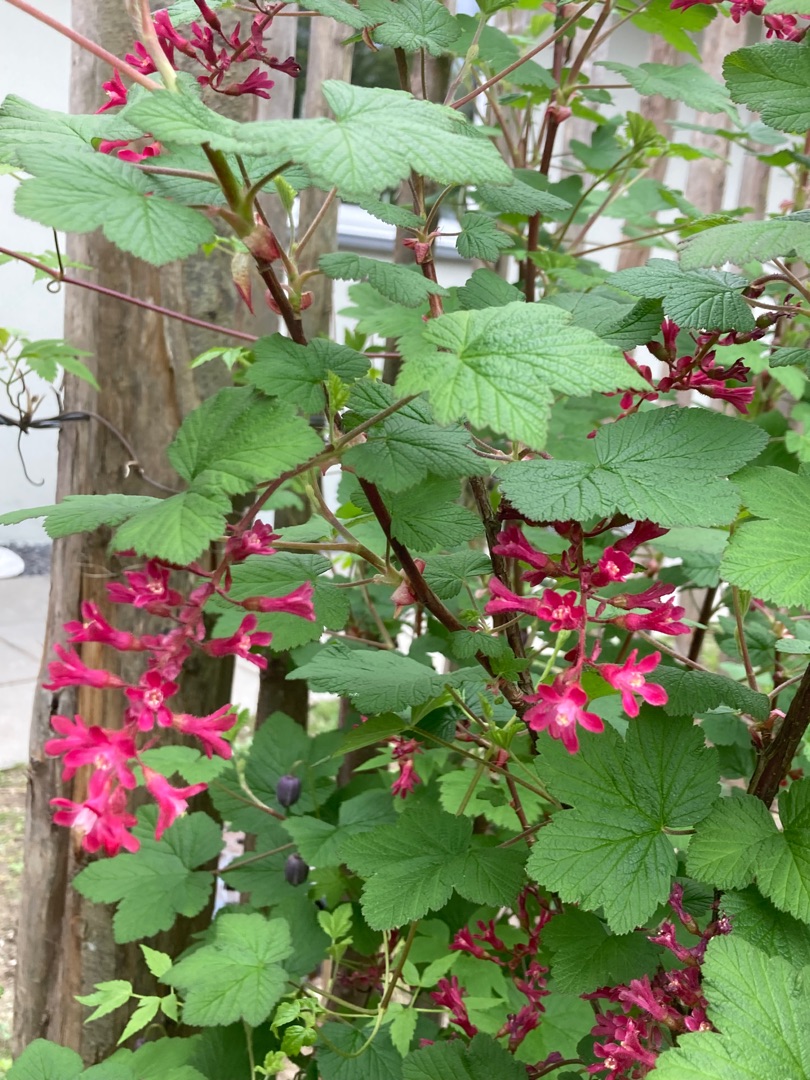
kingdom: Plantae
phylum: Tracheophyta
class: Magnoliopsida
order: Saxifragales
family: Grossulariaceae
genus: Ribes
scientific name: Ribes sanguineum
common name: Blod-ribs
